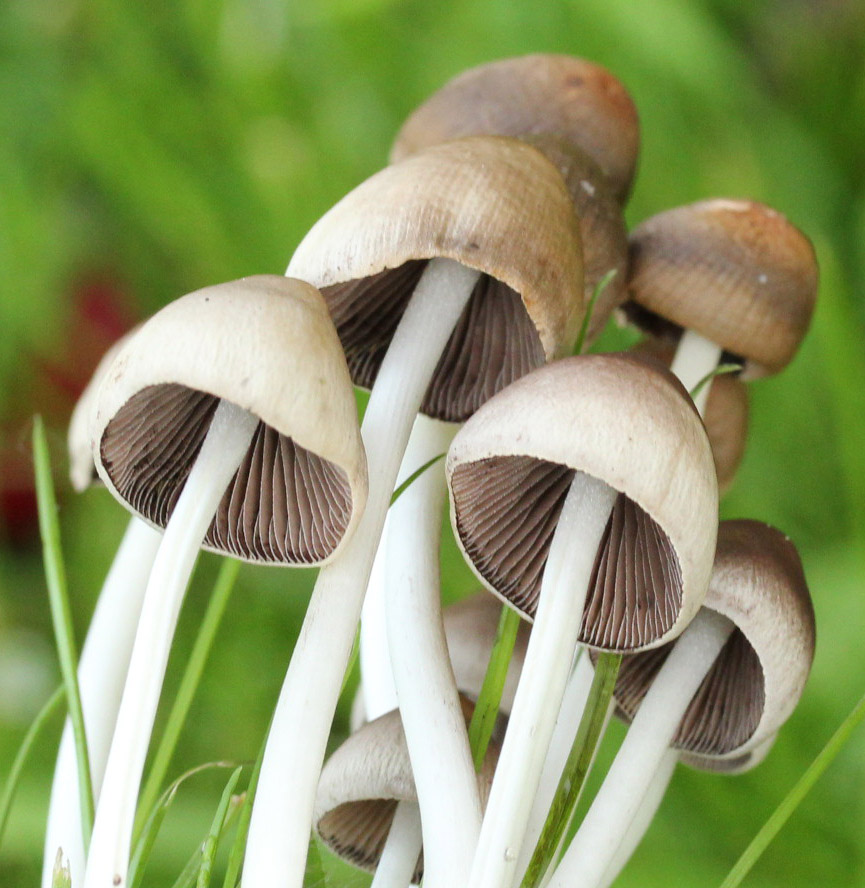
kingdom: Fungi
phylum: Basidiomycota
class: Agaricomycetes
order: Agaricales
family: Psathyrellaceae
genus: Britzelmayria
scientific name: Britzelmayria multipedata
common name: knippe-mørkhat
